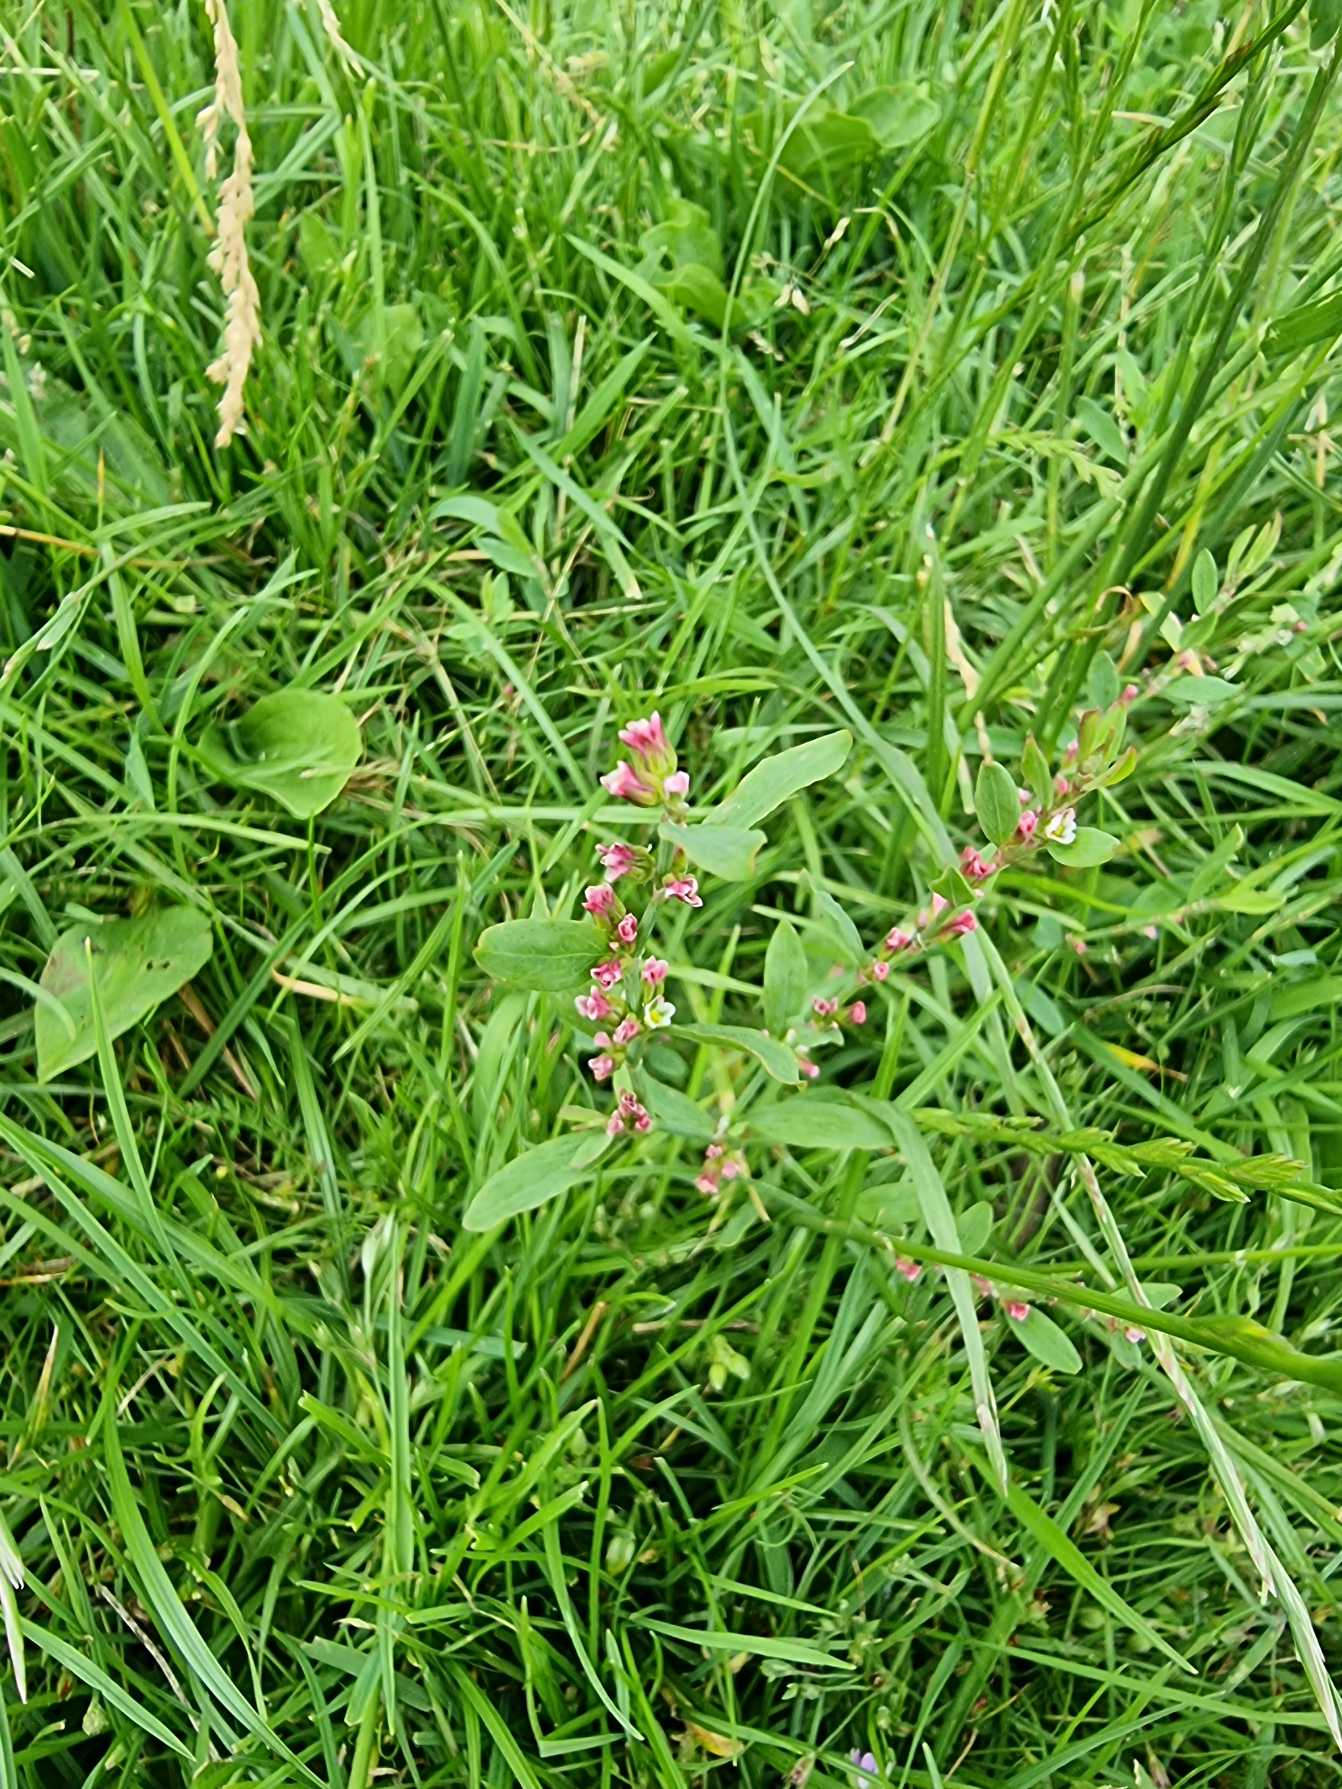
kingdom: Plantae
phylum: Tracheophyta
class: Magnoliopsida
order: Caryophyllales
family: Polygonaceae
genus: Polygonum
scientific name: Polygonum aviculare
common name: Vej-pileurt (underart)
